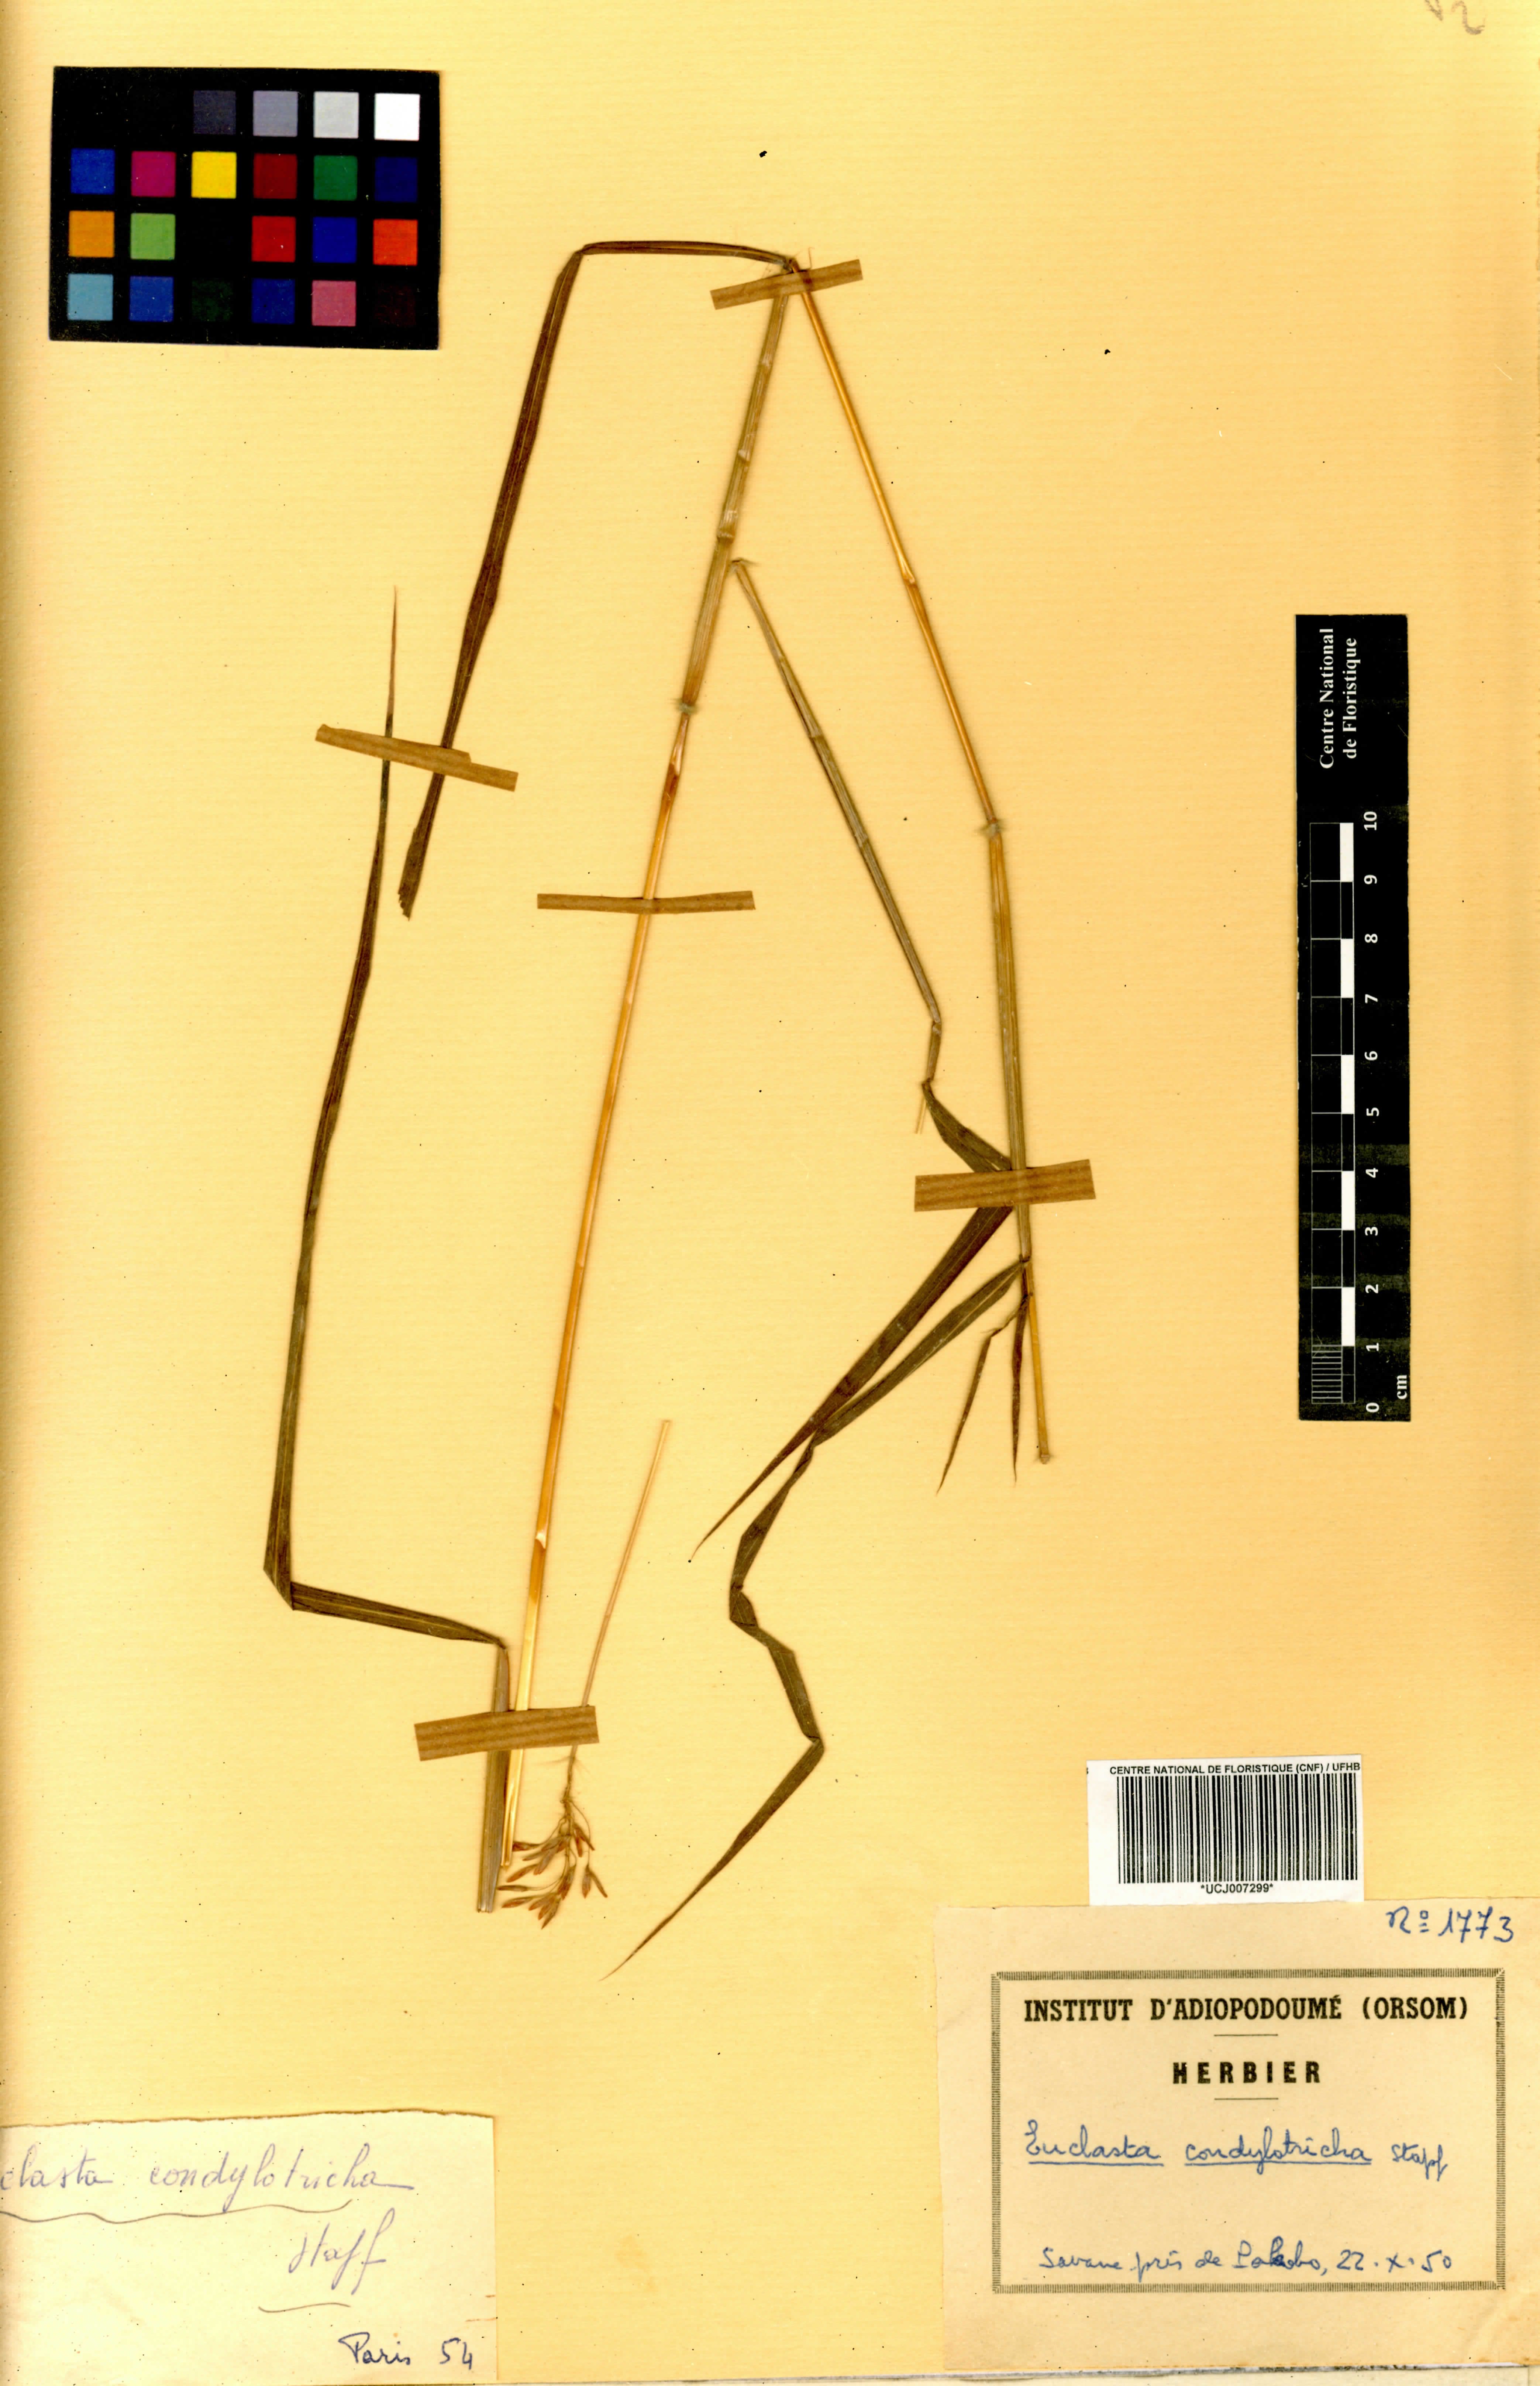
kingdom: Plantae
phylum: Tracheophyta
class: Liliopsida
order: Poales
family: Poaceae
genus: Euclasta
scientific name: Euclasta condylotricha
